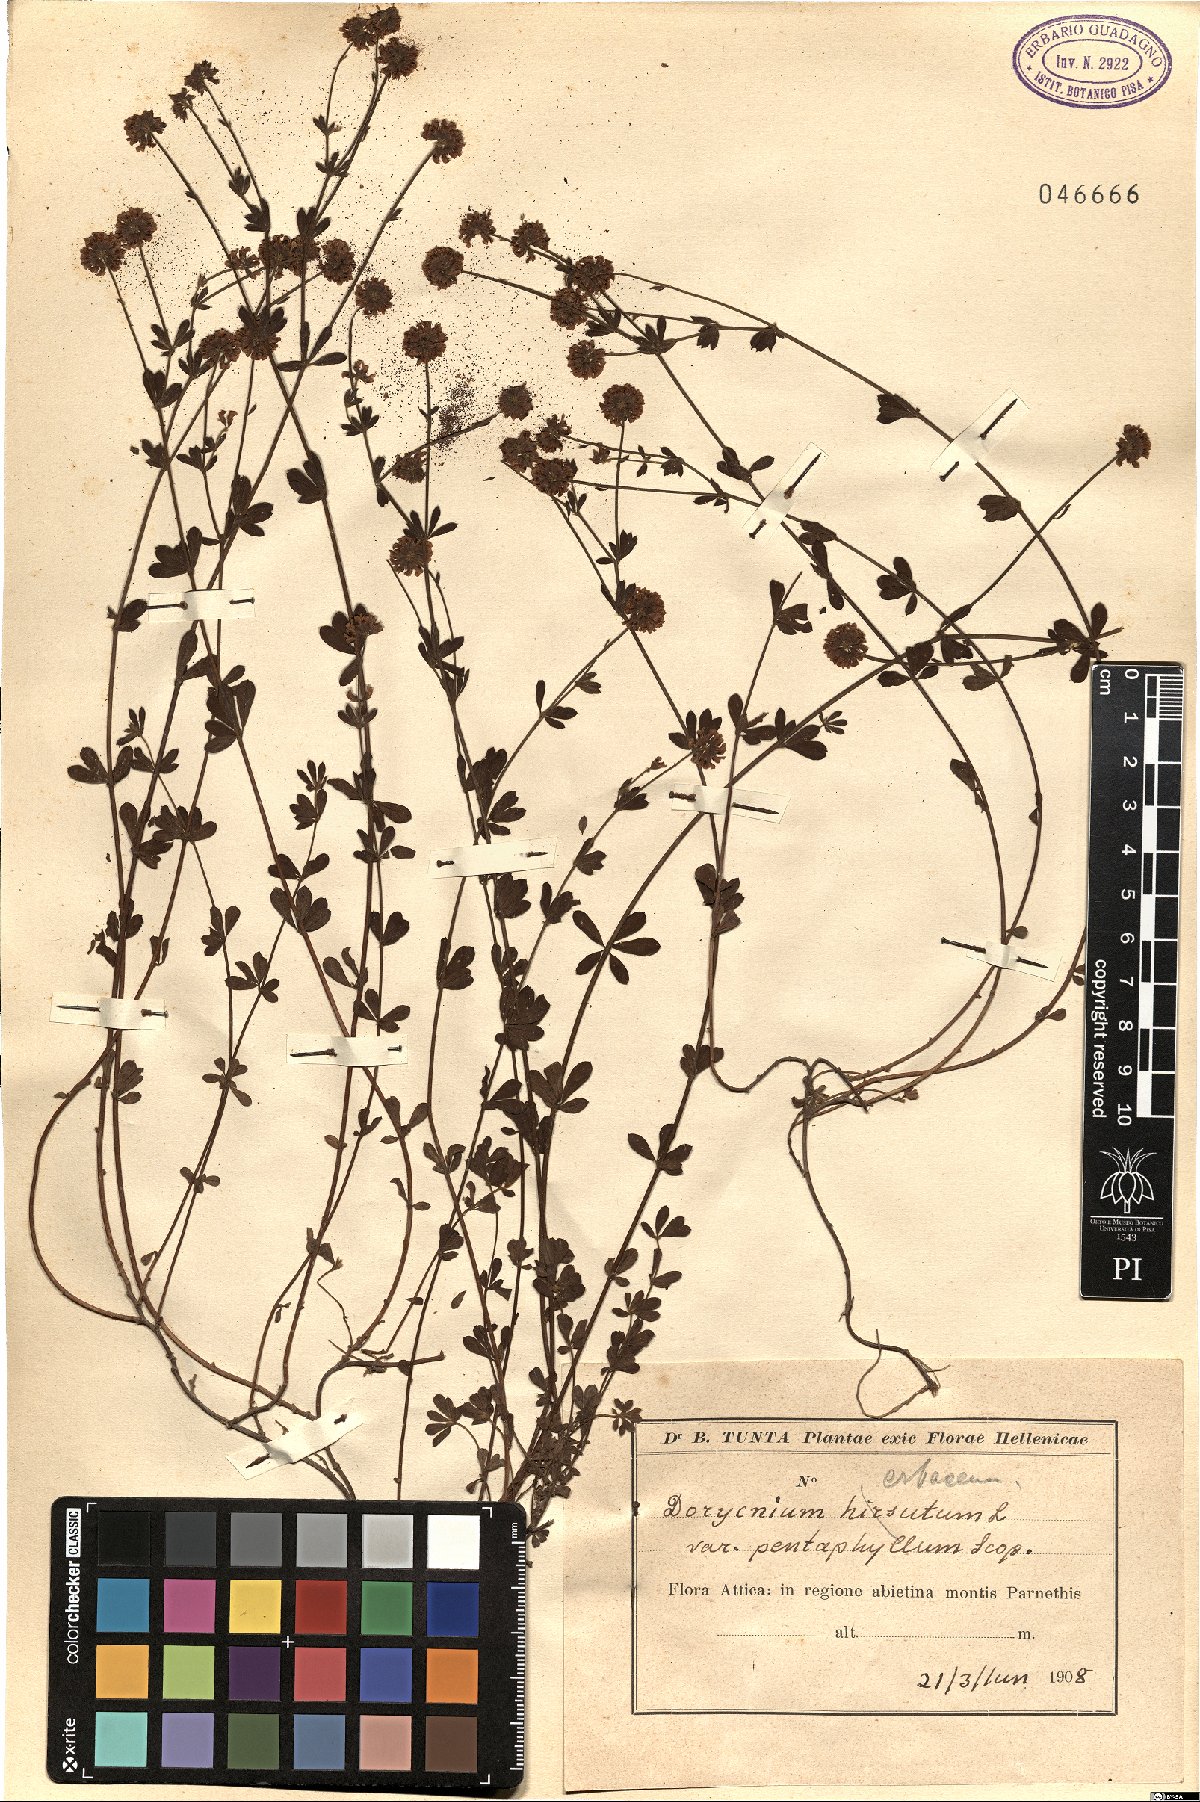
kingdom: Plantae
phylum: Tracheophyta
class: Magnoliopsida
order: Fabales
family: Fabaceae
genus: Lotus
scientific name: Lotus hirsutus
